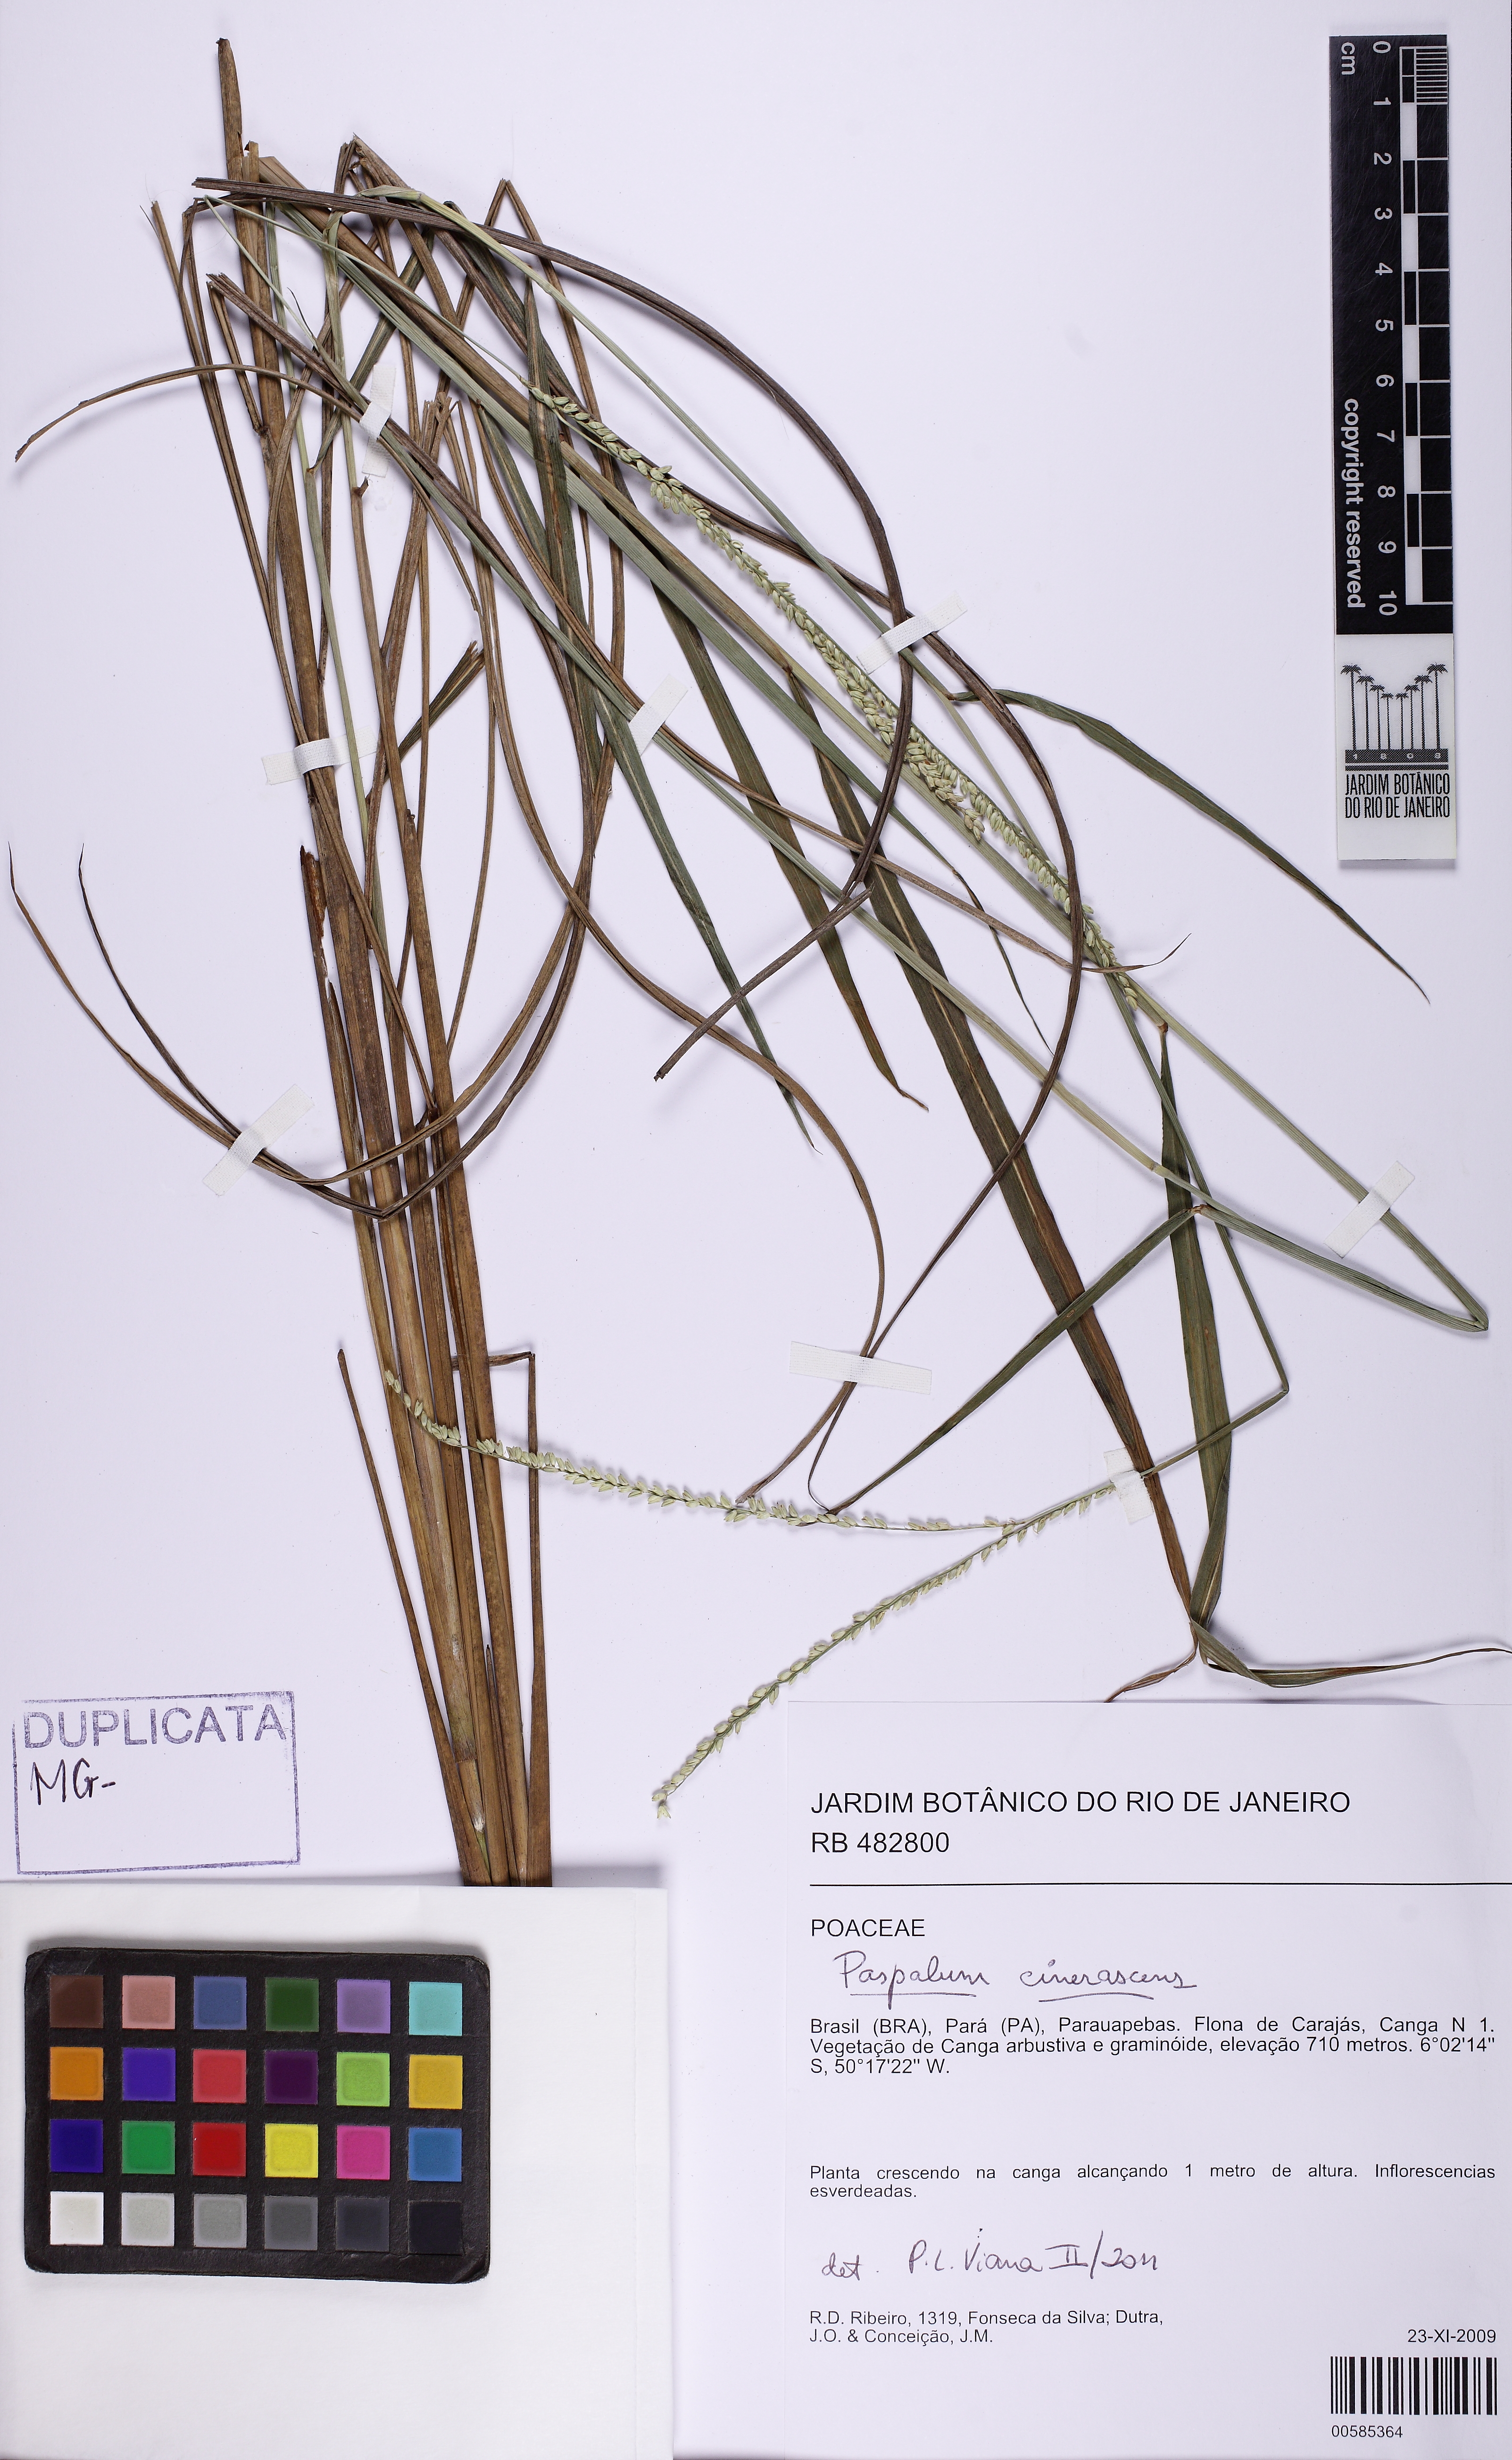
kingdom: Plantae
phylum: Tracheophyta
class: Liliopsida
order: Poales
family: Poaceae
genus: Paspalum
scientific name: Paspalum cinerascens
